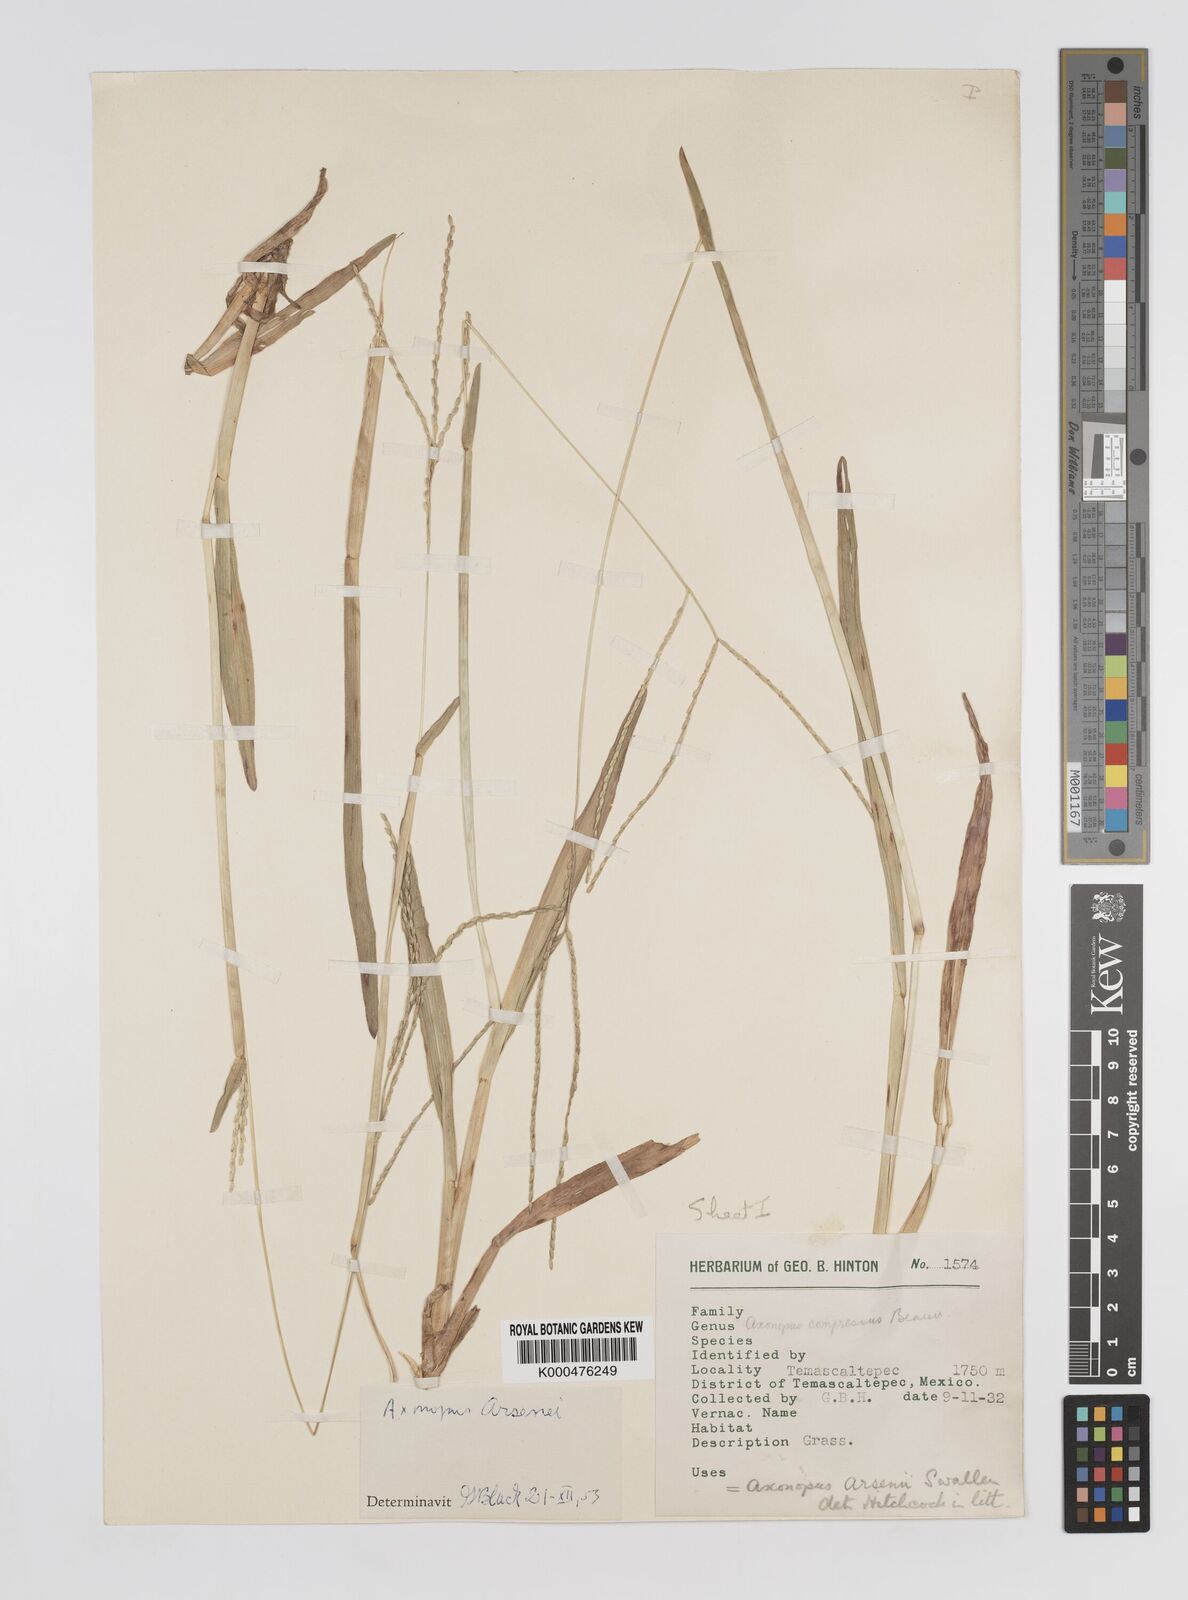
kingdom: Plantae
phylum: Tracheophyta
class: Liliopsida
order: Poales
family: Poaceae
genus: Axonopus
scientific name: Axonopus compressus
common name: American carpet grass
